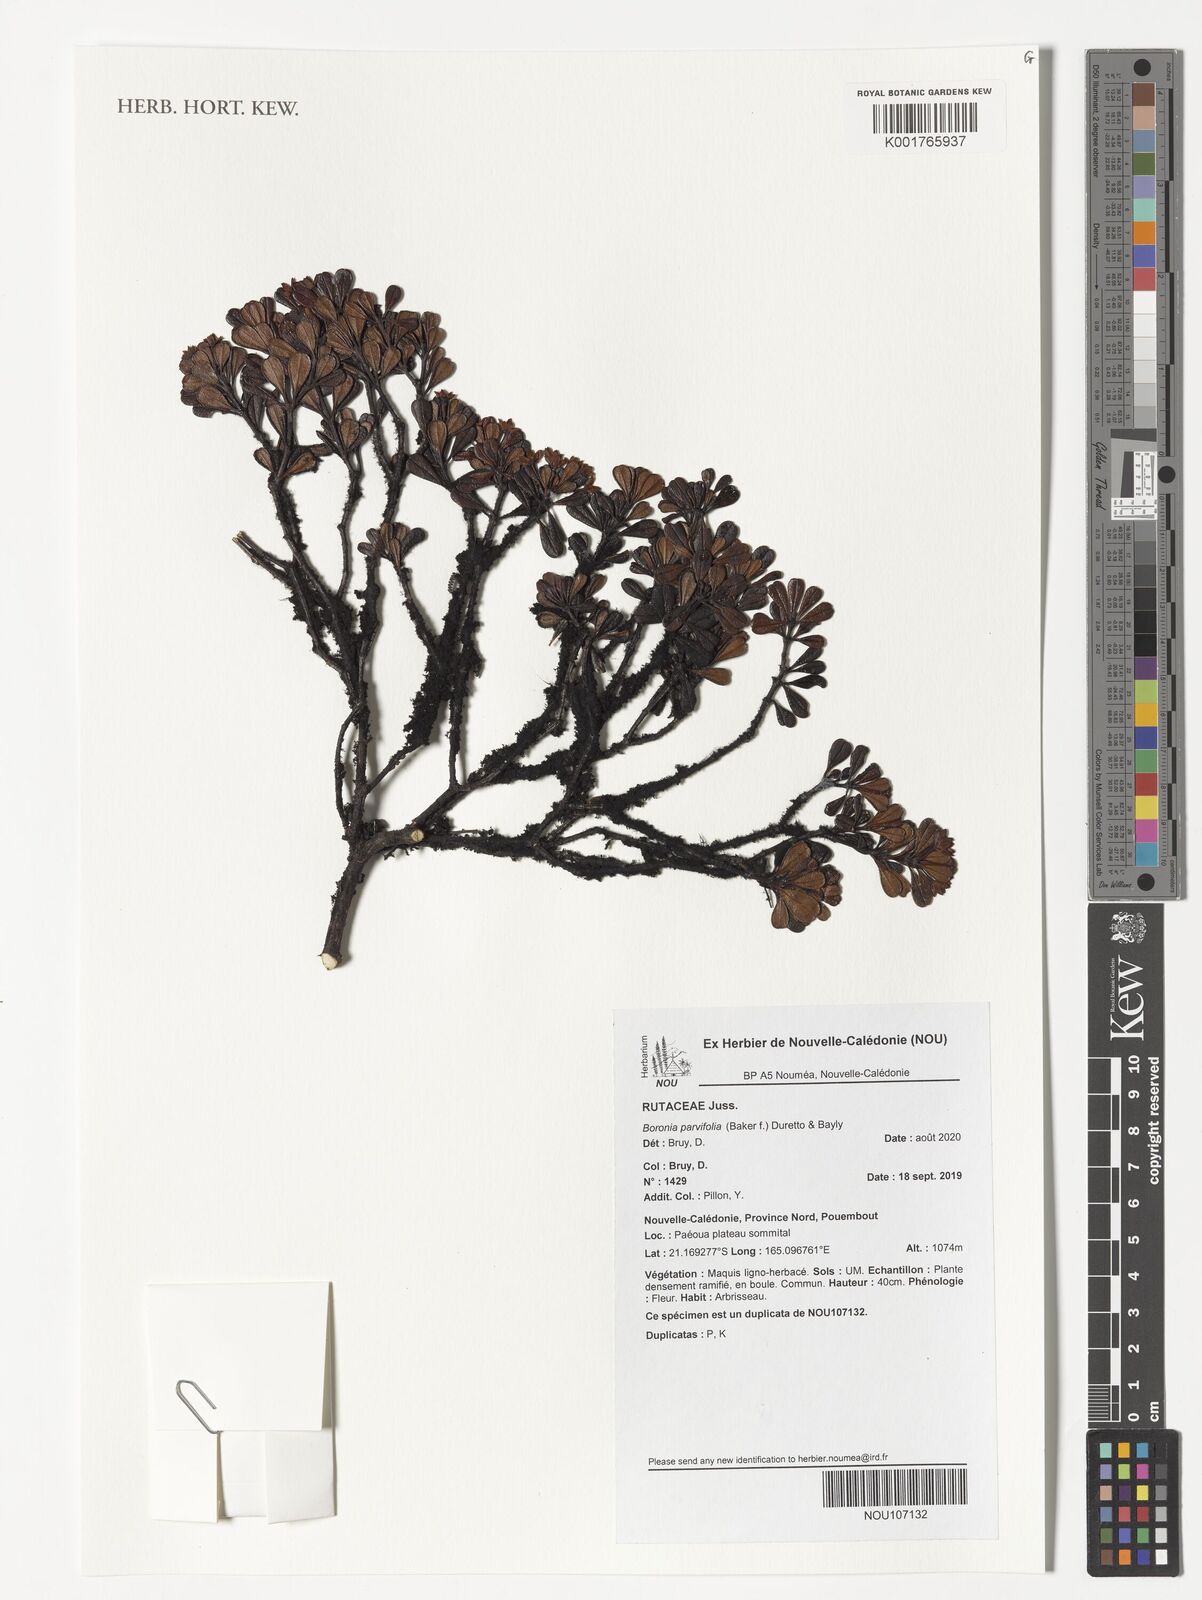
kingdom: Plantae
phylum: Tracheophyta
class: Magnoliopsida
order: Sapindales
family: Rutaceae
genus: Boronia
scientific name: Boronia parvifolia
